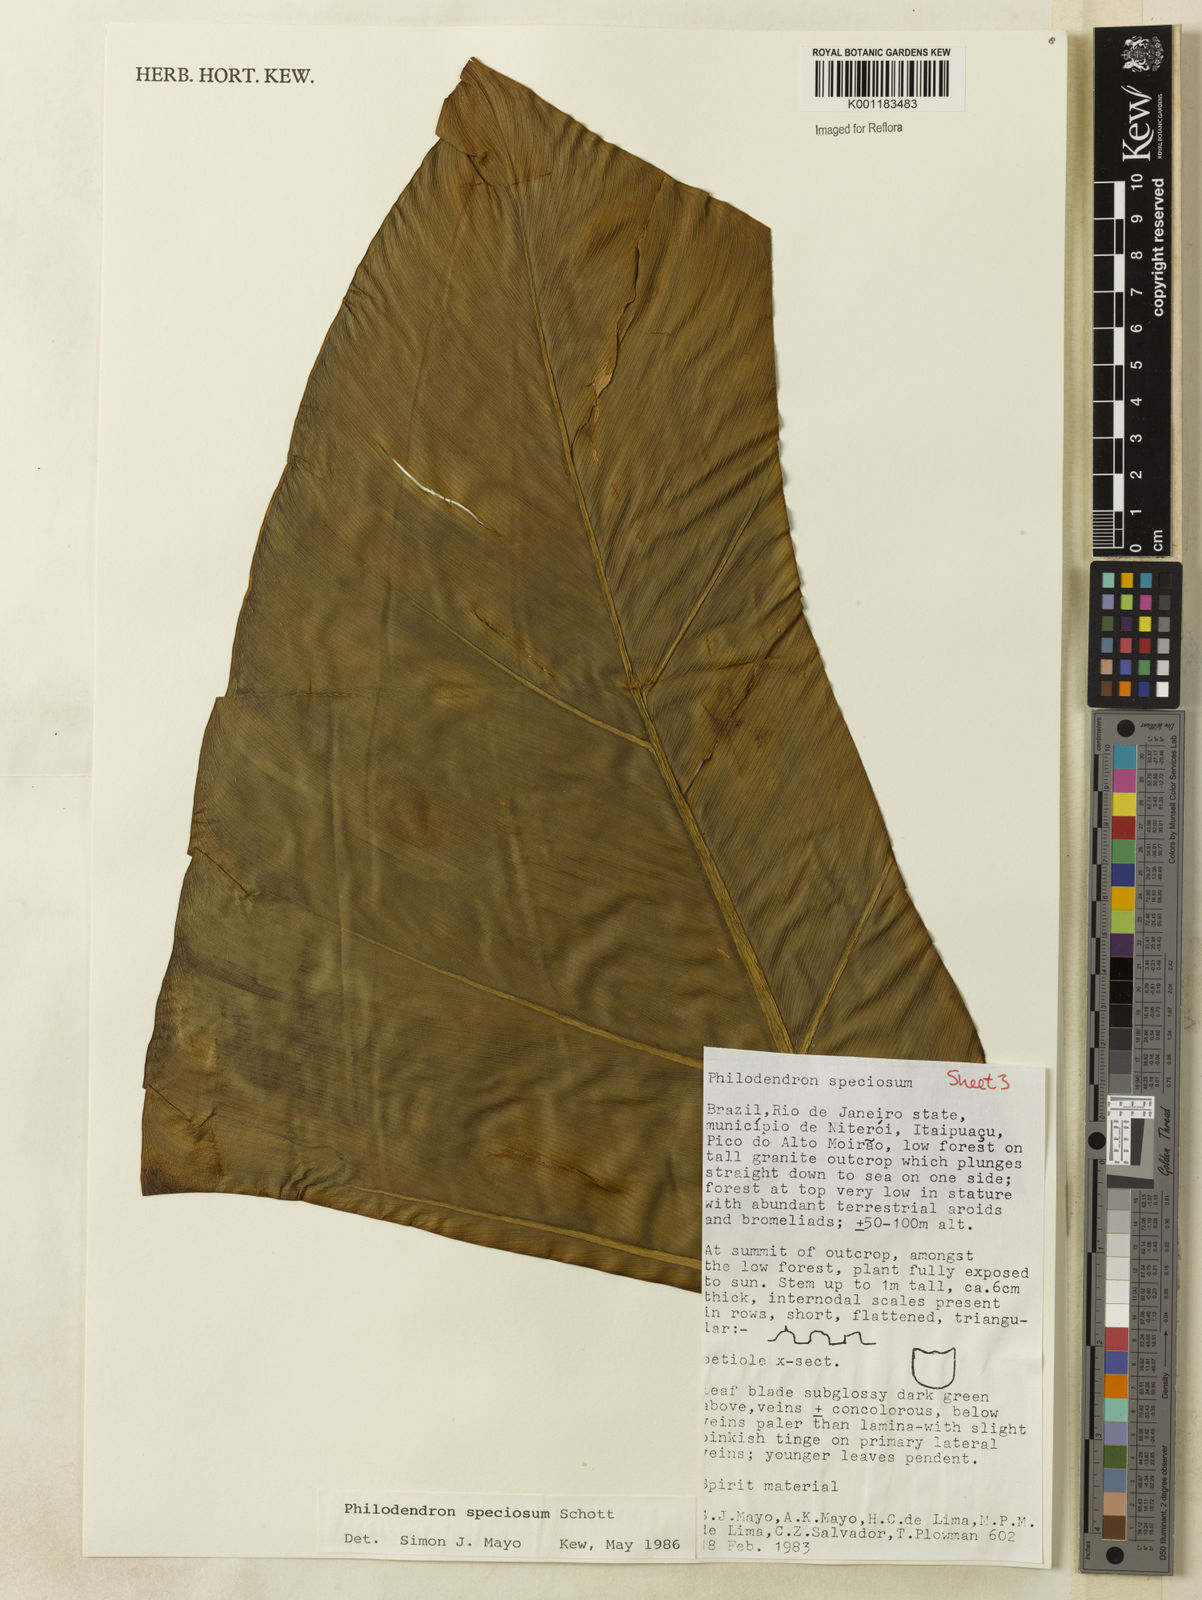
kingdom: Plantae
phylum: Tracheophyta
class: Liliopsida
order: Alismatales
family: Araceae
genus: Thaumatophyllum
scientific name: Thaumatophyllum speciosum
